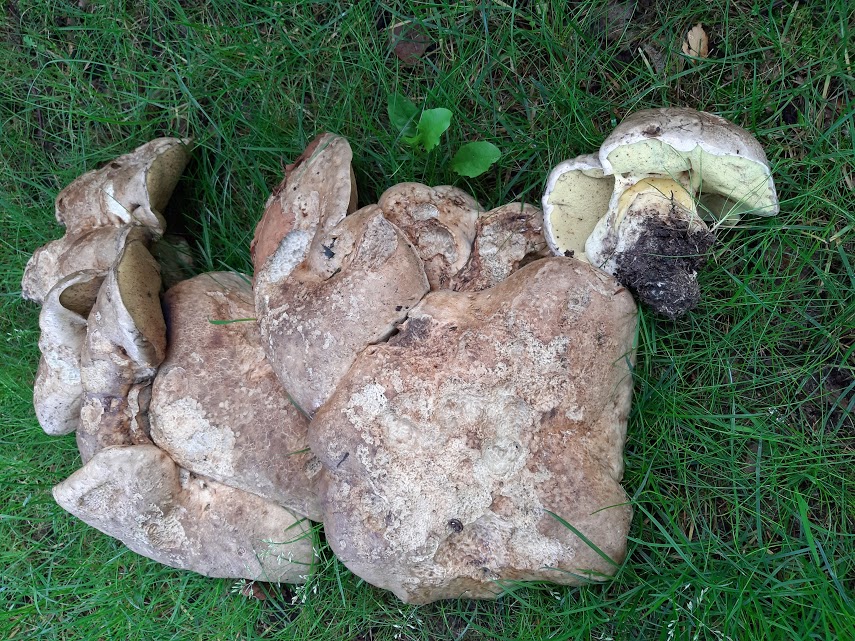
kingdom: Fungi
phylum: Basidiomycota
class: Agaricomycetes
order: Boletales
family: Boletaceae
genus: Caloboletus
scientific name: Caloboletus radicans
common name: rod-rørhat
